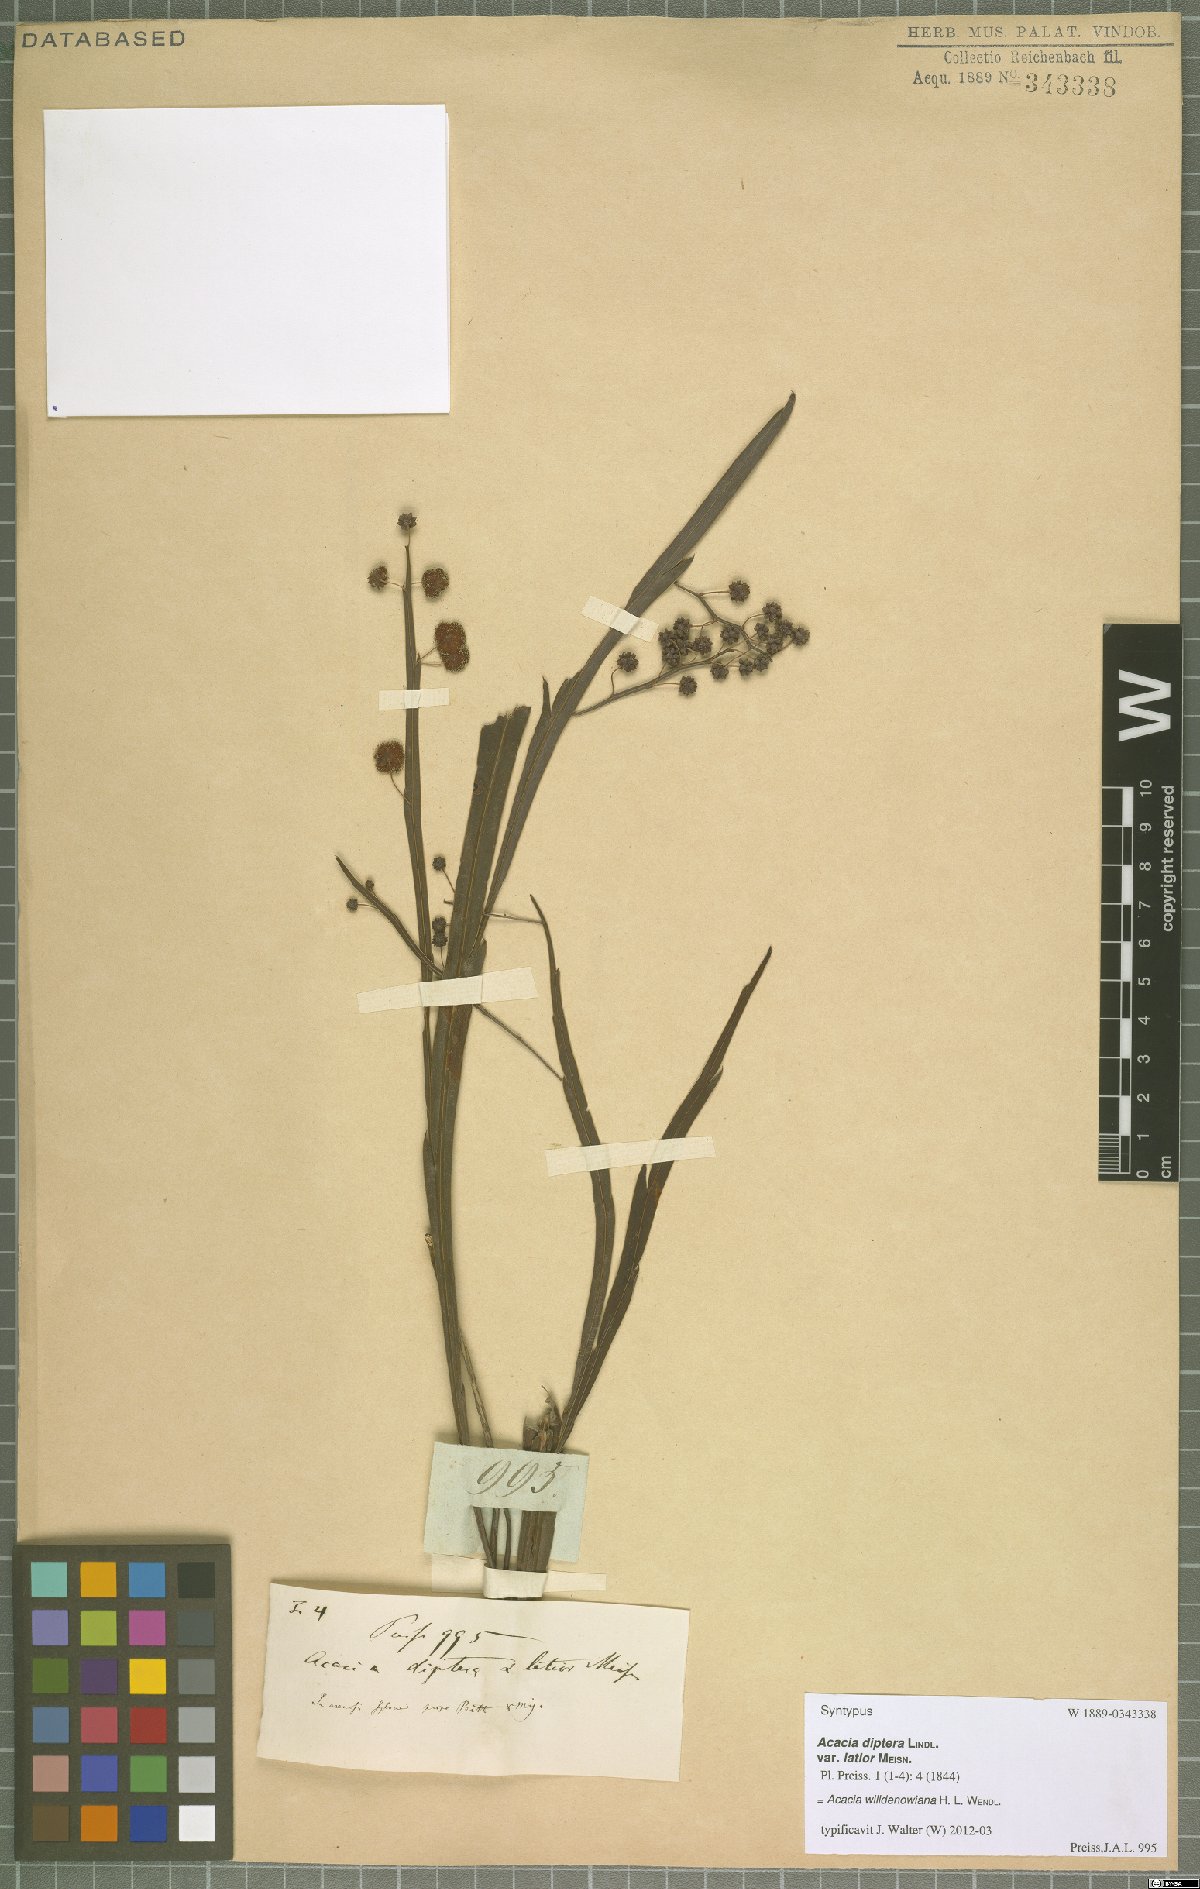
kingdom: Plantae
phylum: Tracheophyta
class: Magnoliopsida
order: Fabales
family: Fabaceae
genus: Acacia
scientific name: Acacia willdenowiana
